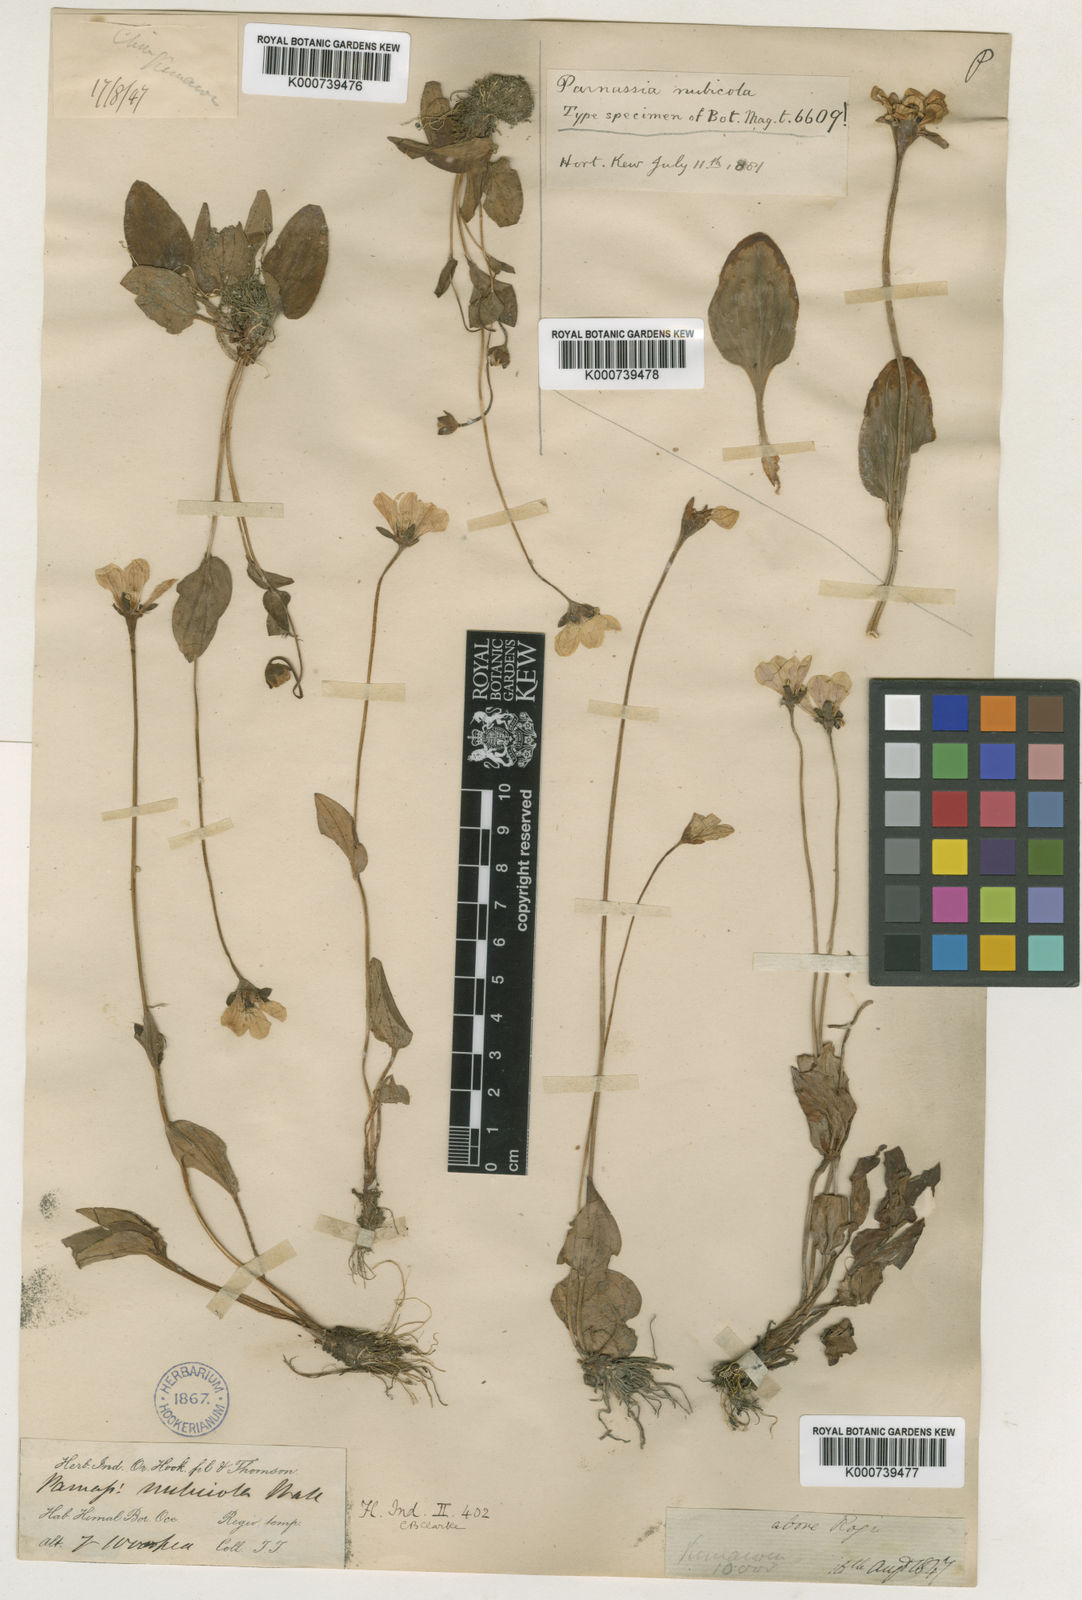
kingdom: Plantae
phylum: Tracheophyta
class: Magnoliopsida
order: Celastrales
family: Parnassiaceae
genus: Parnassia
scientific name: Parnassia
